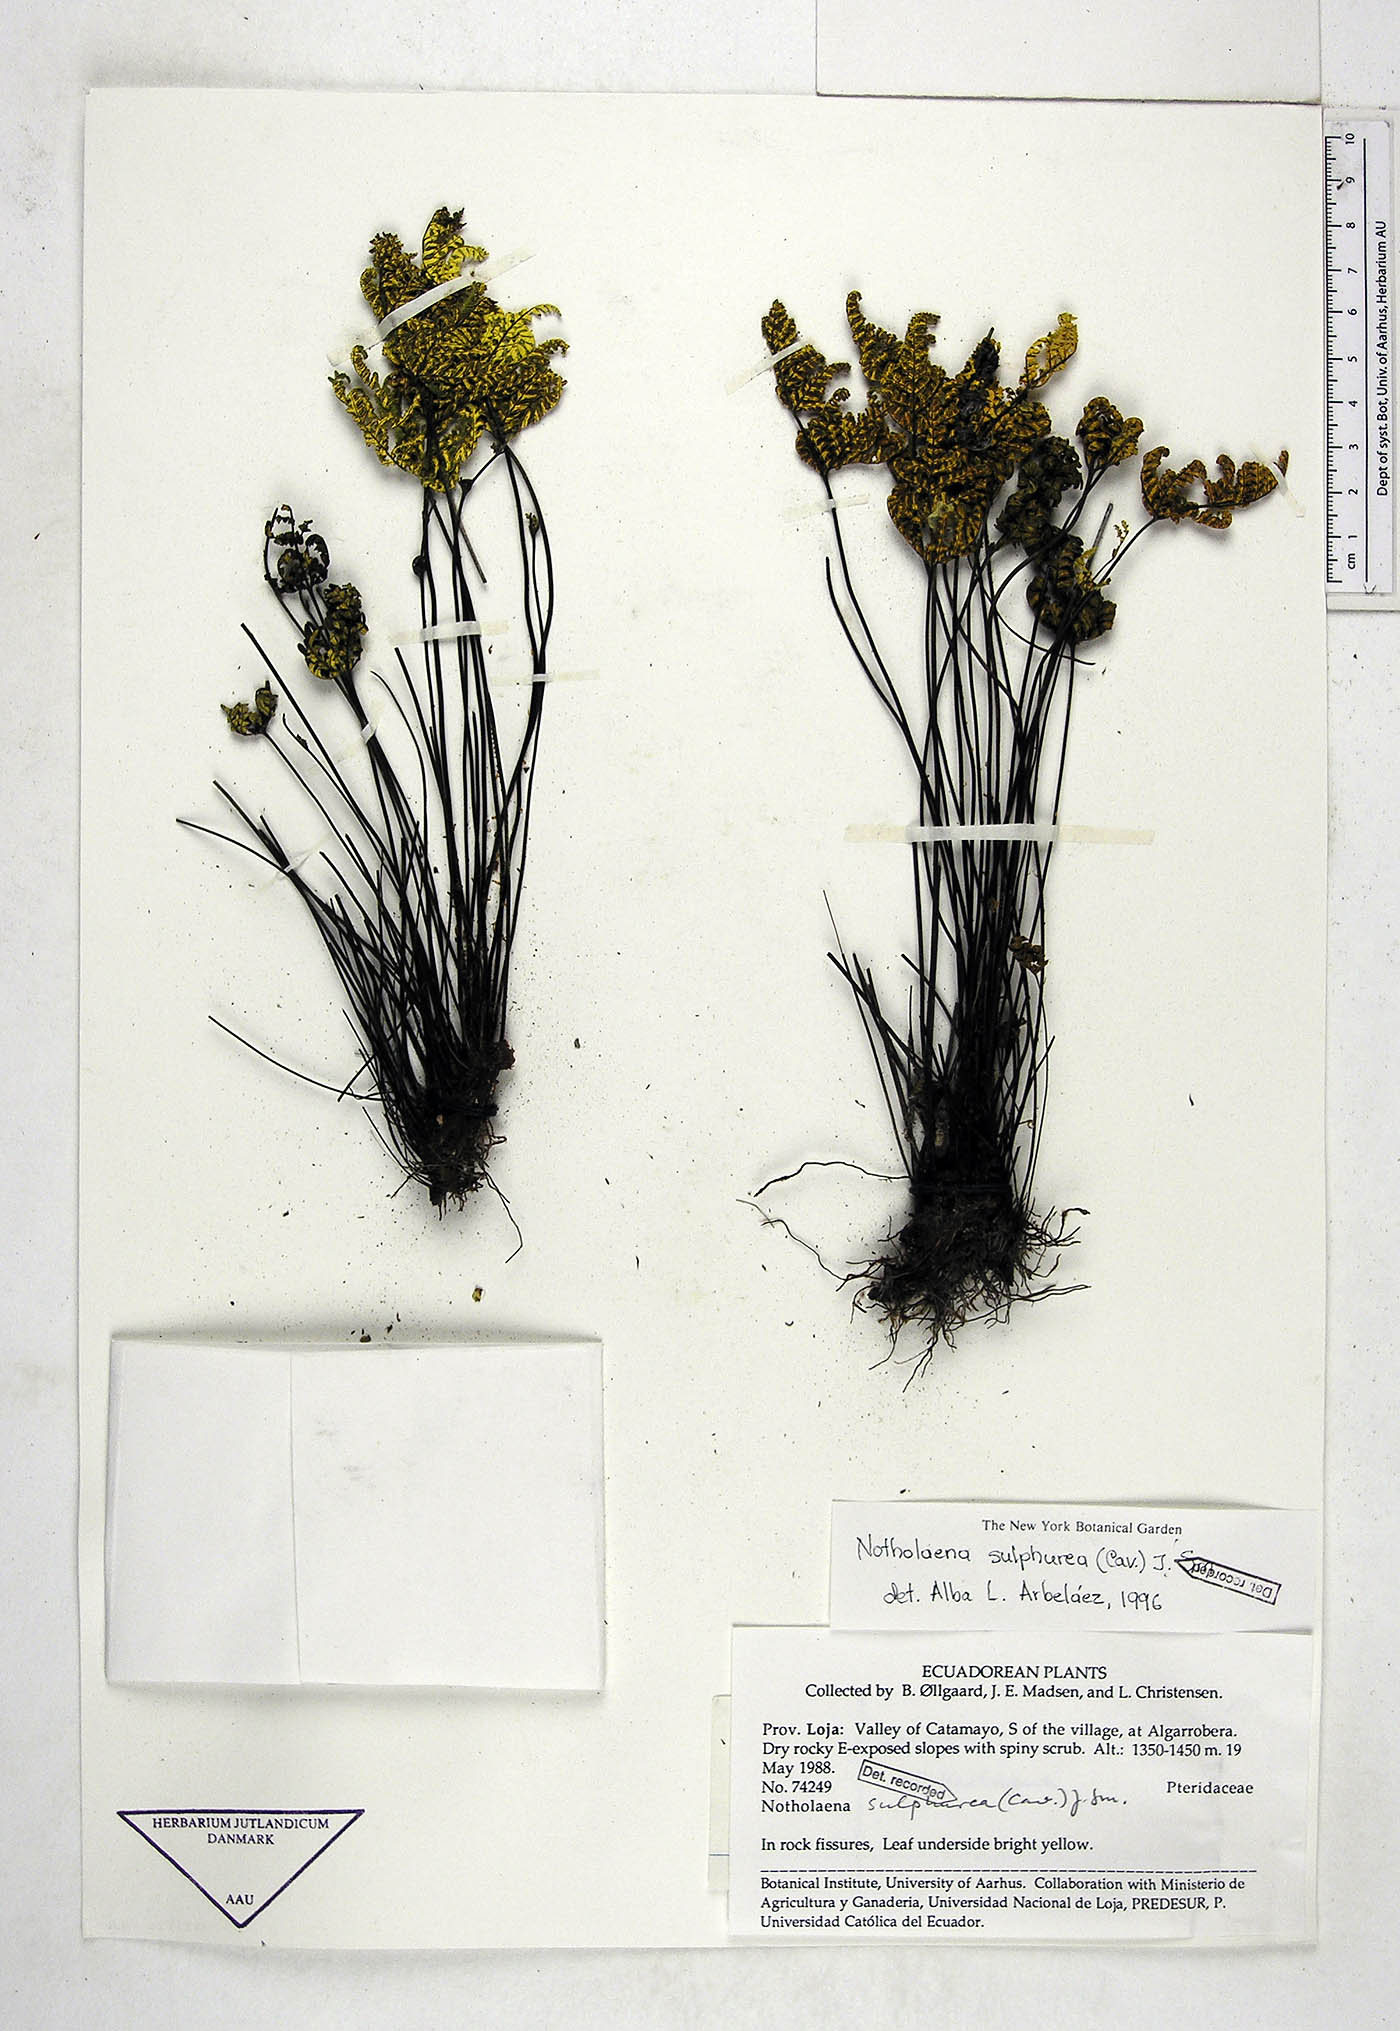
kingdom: Plantae
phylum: Tracheophyta
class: Polypodiopsida
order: Polypodiales
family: Pteridaceae
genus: Notholaena
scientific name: Notholaena sulphurea
